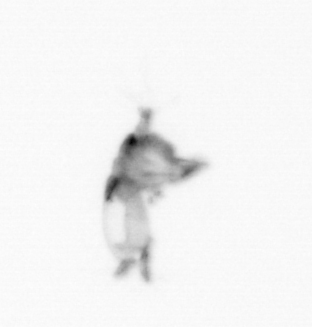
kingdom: Animalia
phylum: Arthropoda
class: Copepoda
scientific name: Copepoda
